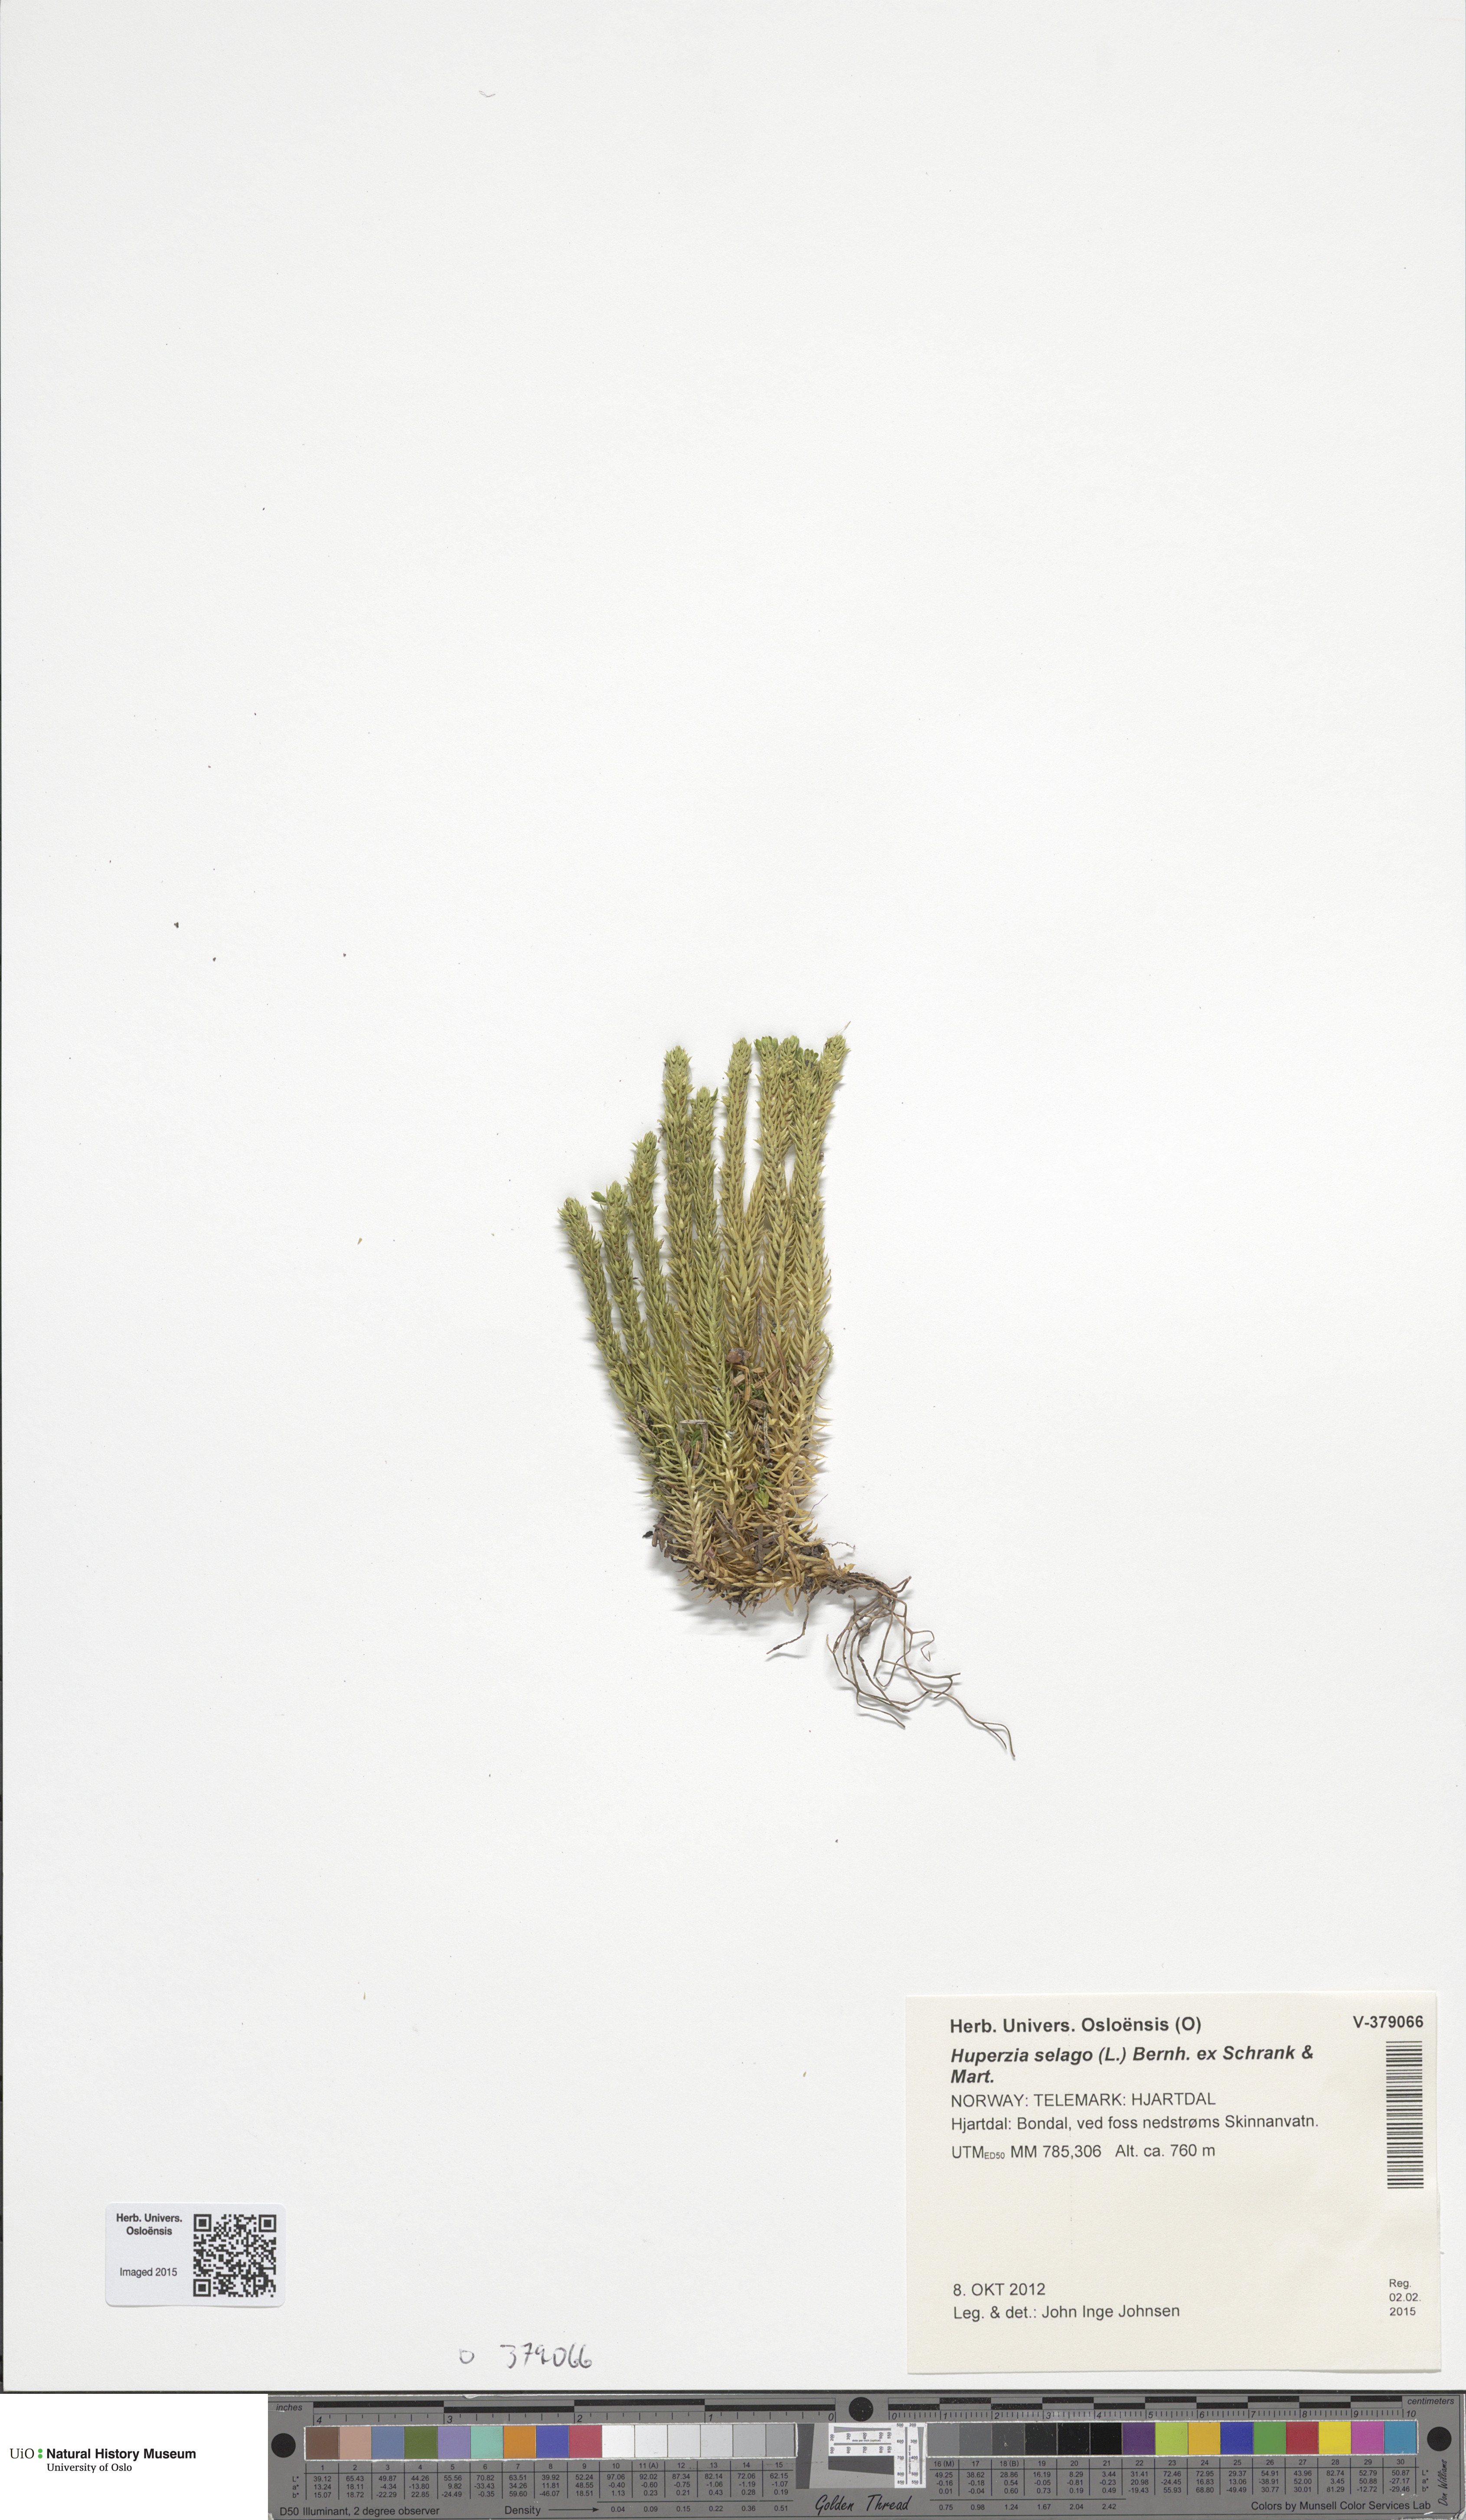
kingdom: Plantae
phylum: Tracheophyta
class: Lycopodiopsida
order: Lycopodiales
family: Lycopodiaceae
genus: Huperzia
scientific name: Huperzia selago
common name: Northern firmoss
